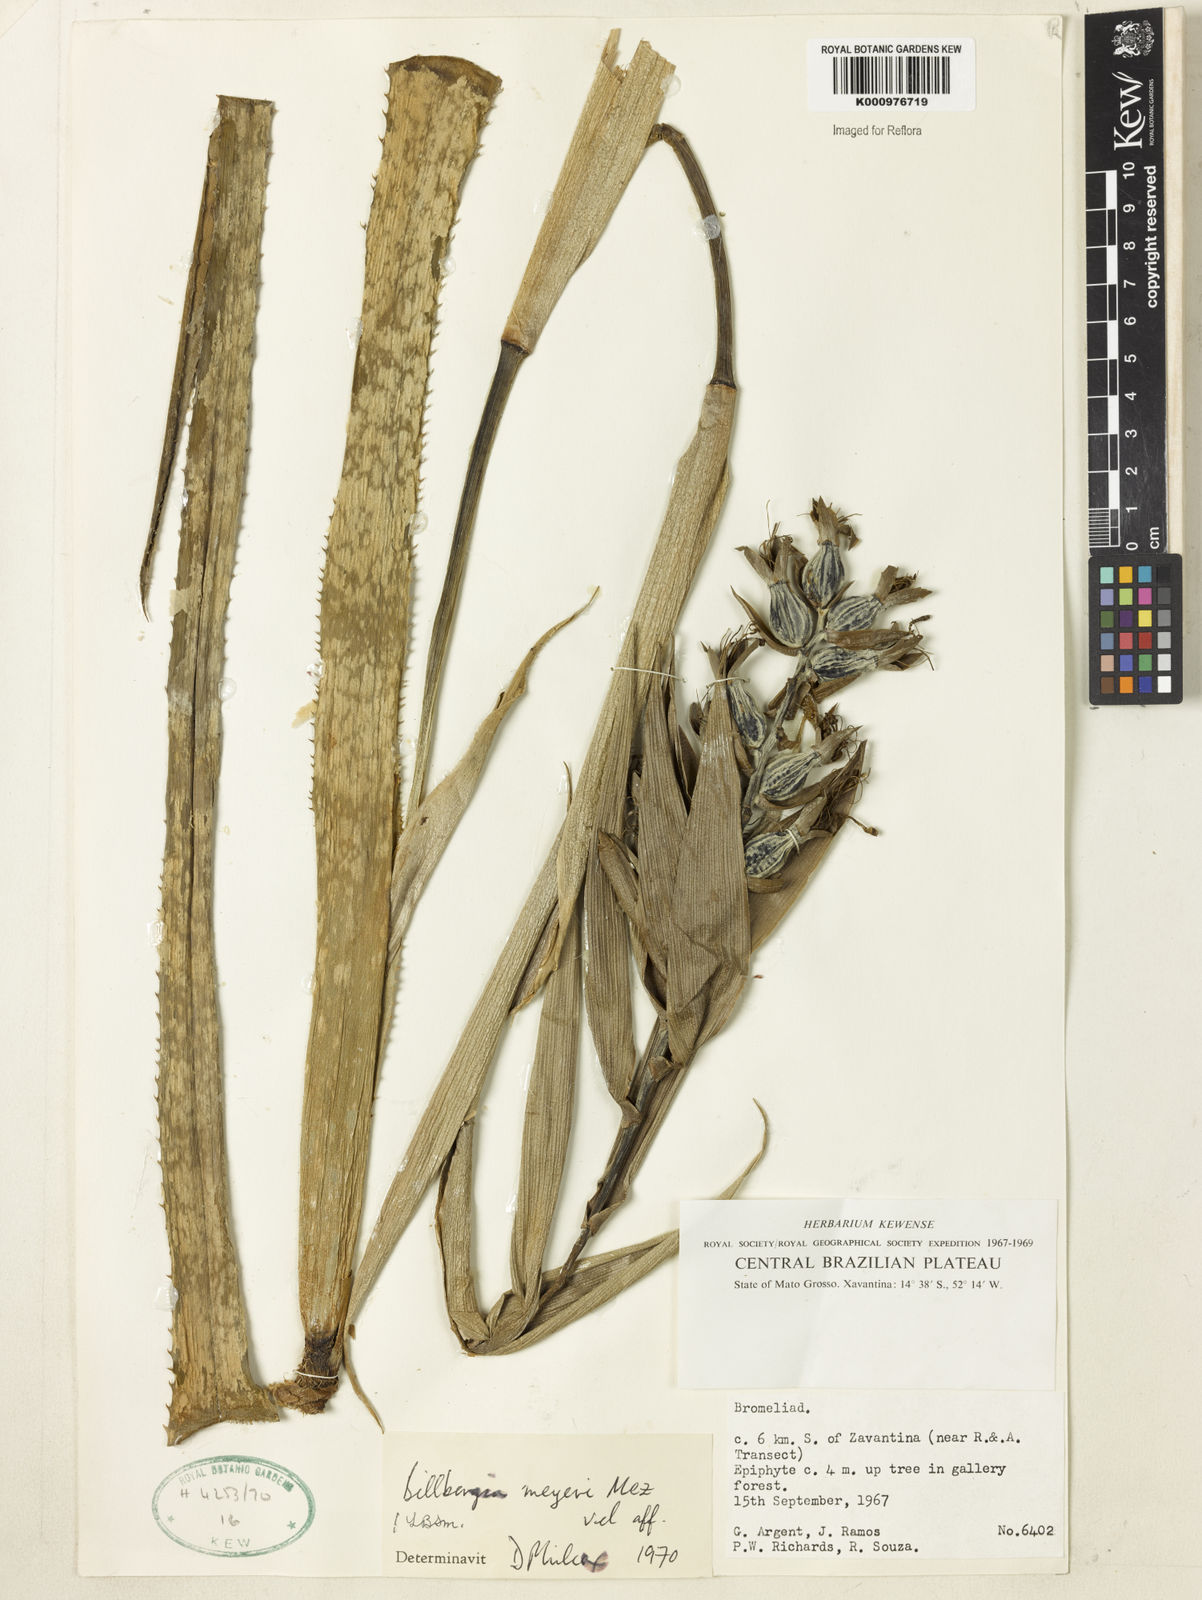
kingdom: Plantae
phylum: Tracheophyta
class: Liliopsida
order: Poales
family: Bromeliaceae
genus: Billbergia
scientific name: Billbergia meyeri
